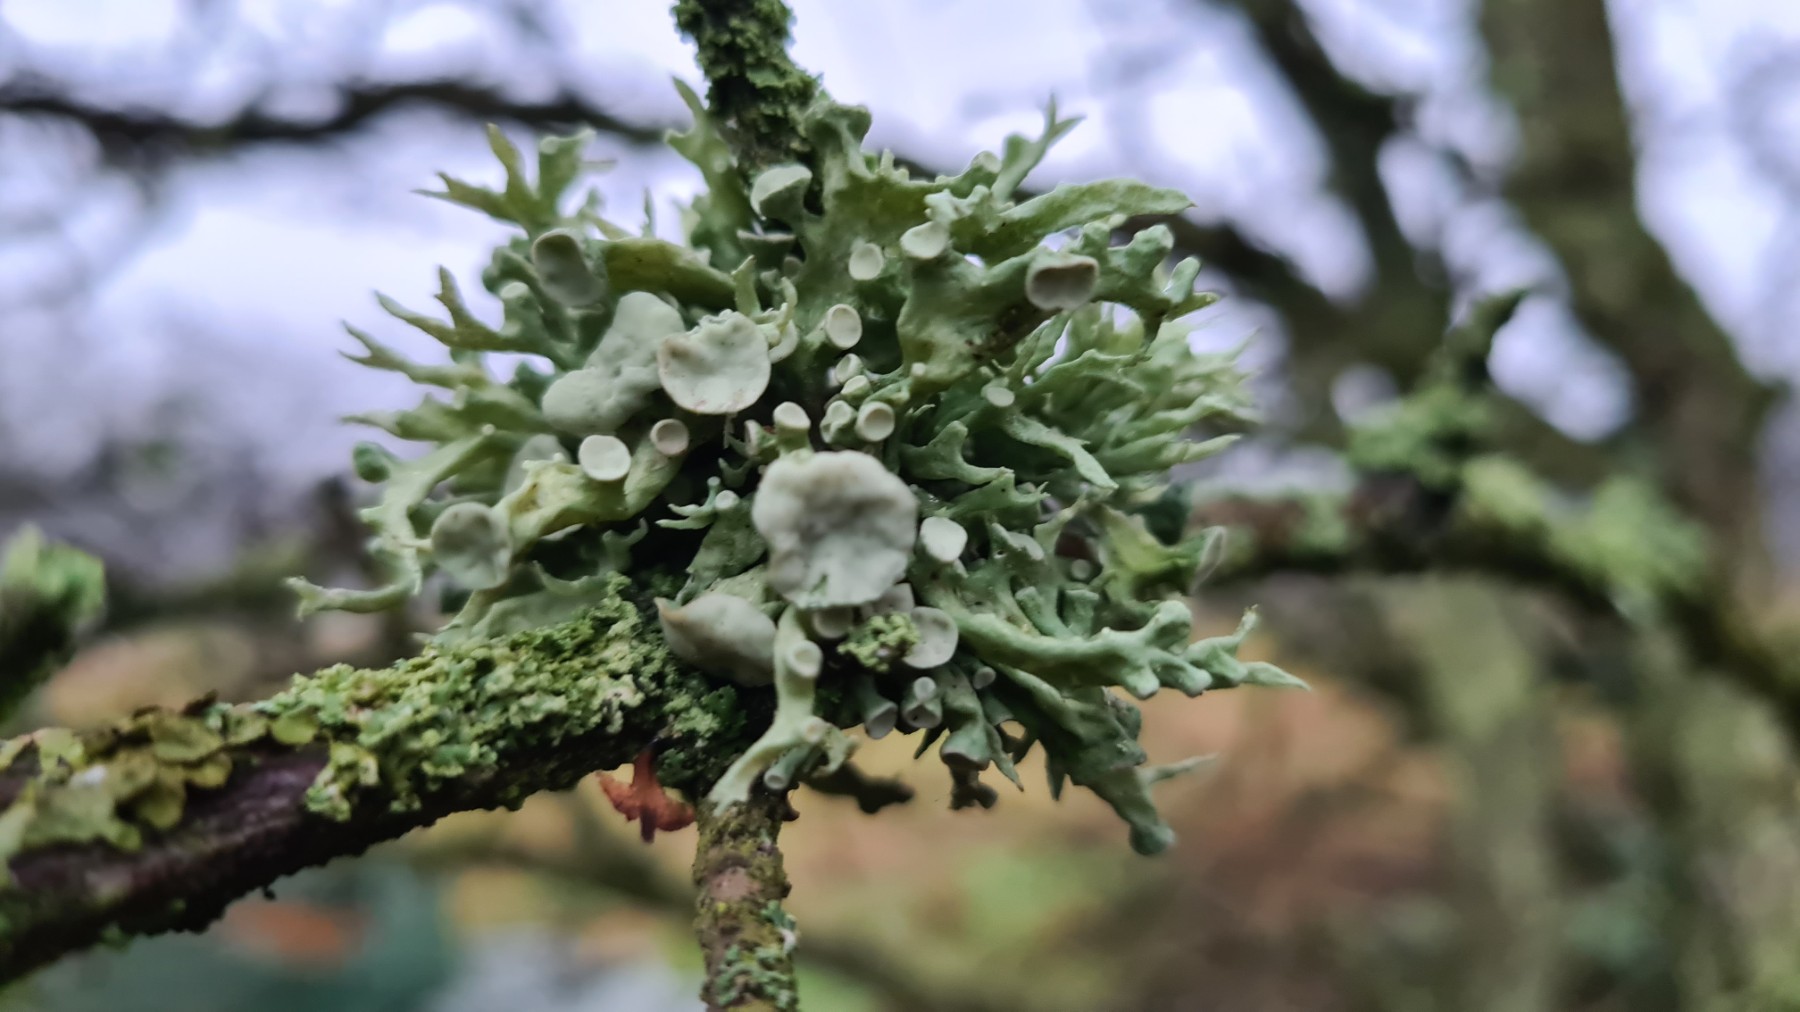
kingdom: Fungi
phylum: Ascomycota
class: Lecanoromycetes
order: Lecanorales
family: Ramalinaceae
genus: Ramalina
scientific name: Ramalina fastigiata
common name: tue-grenlav
